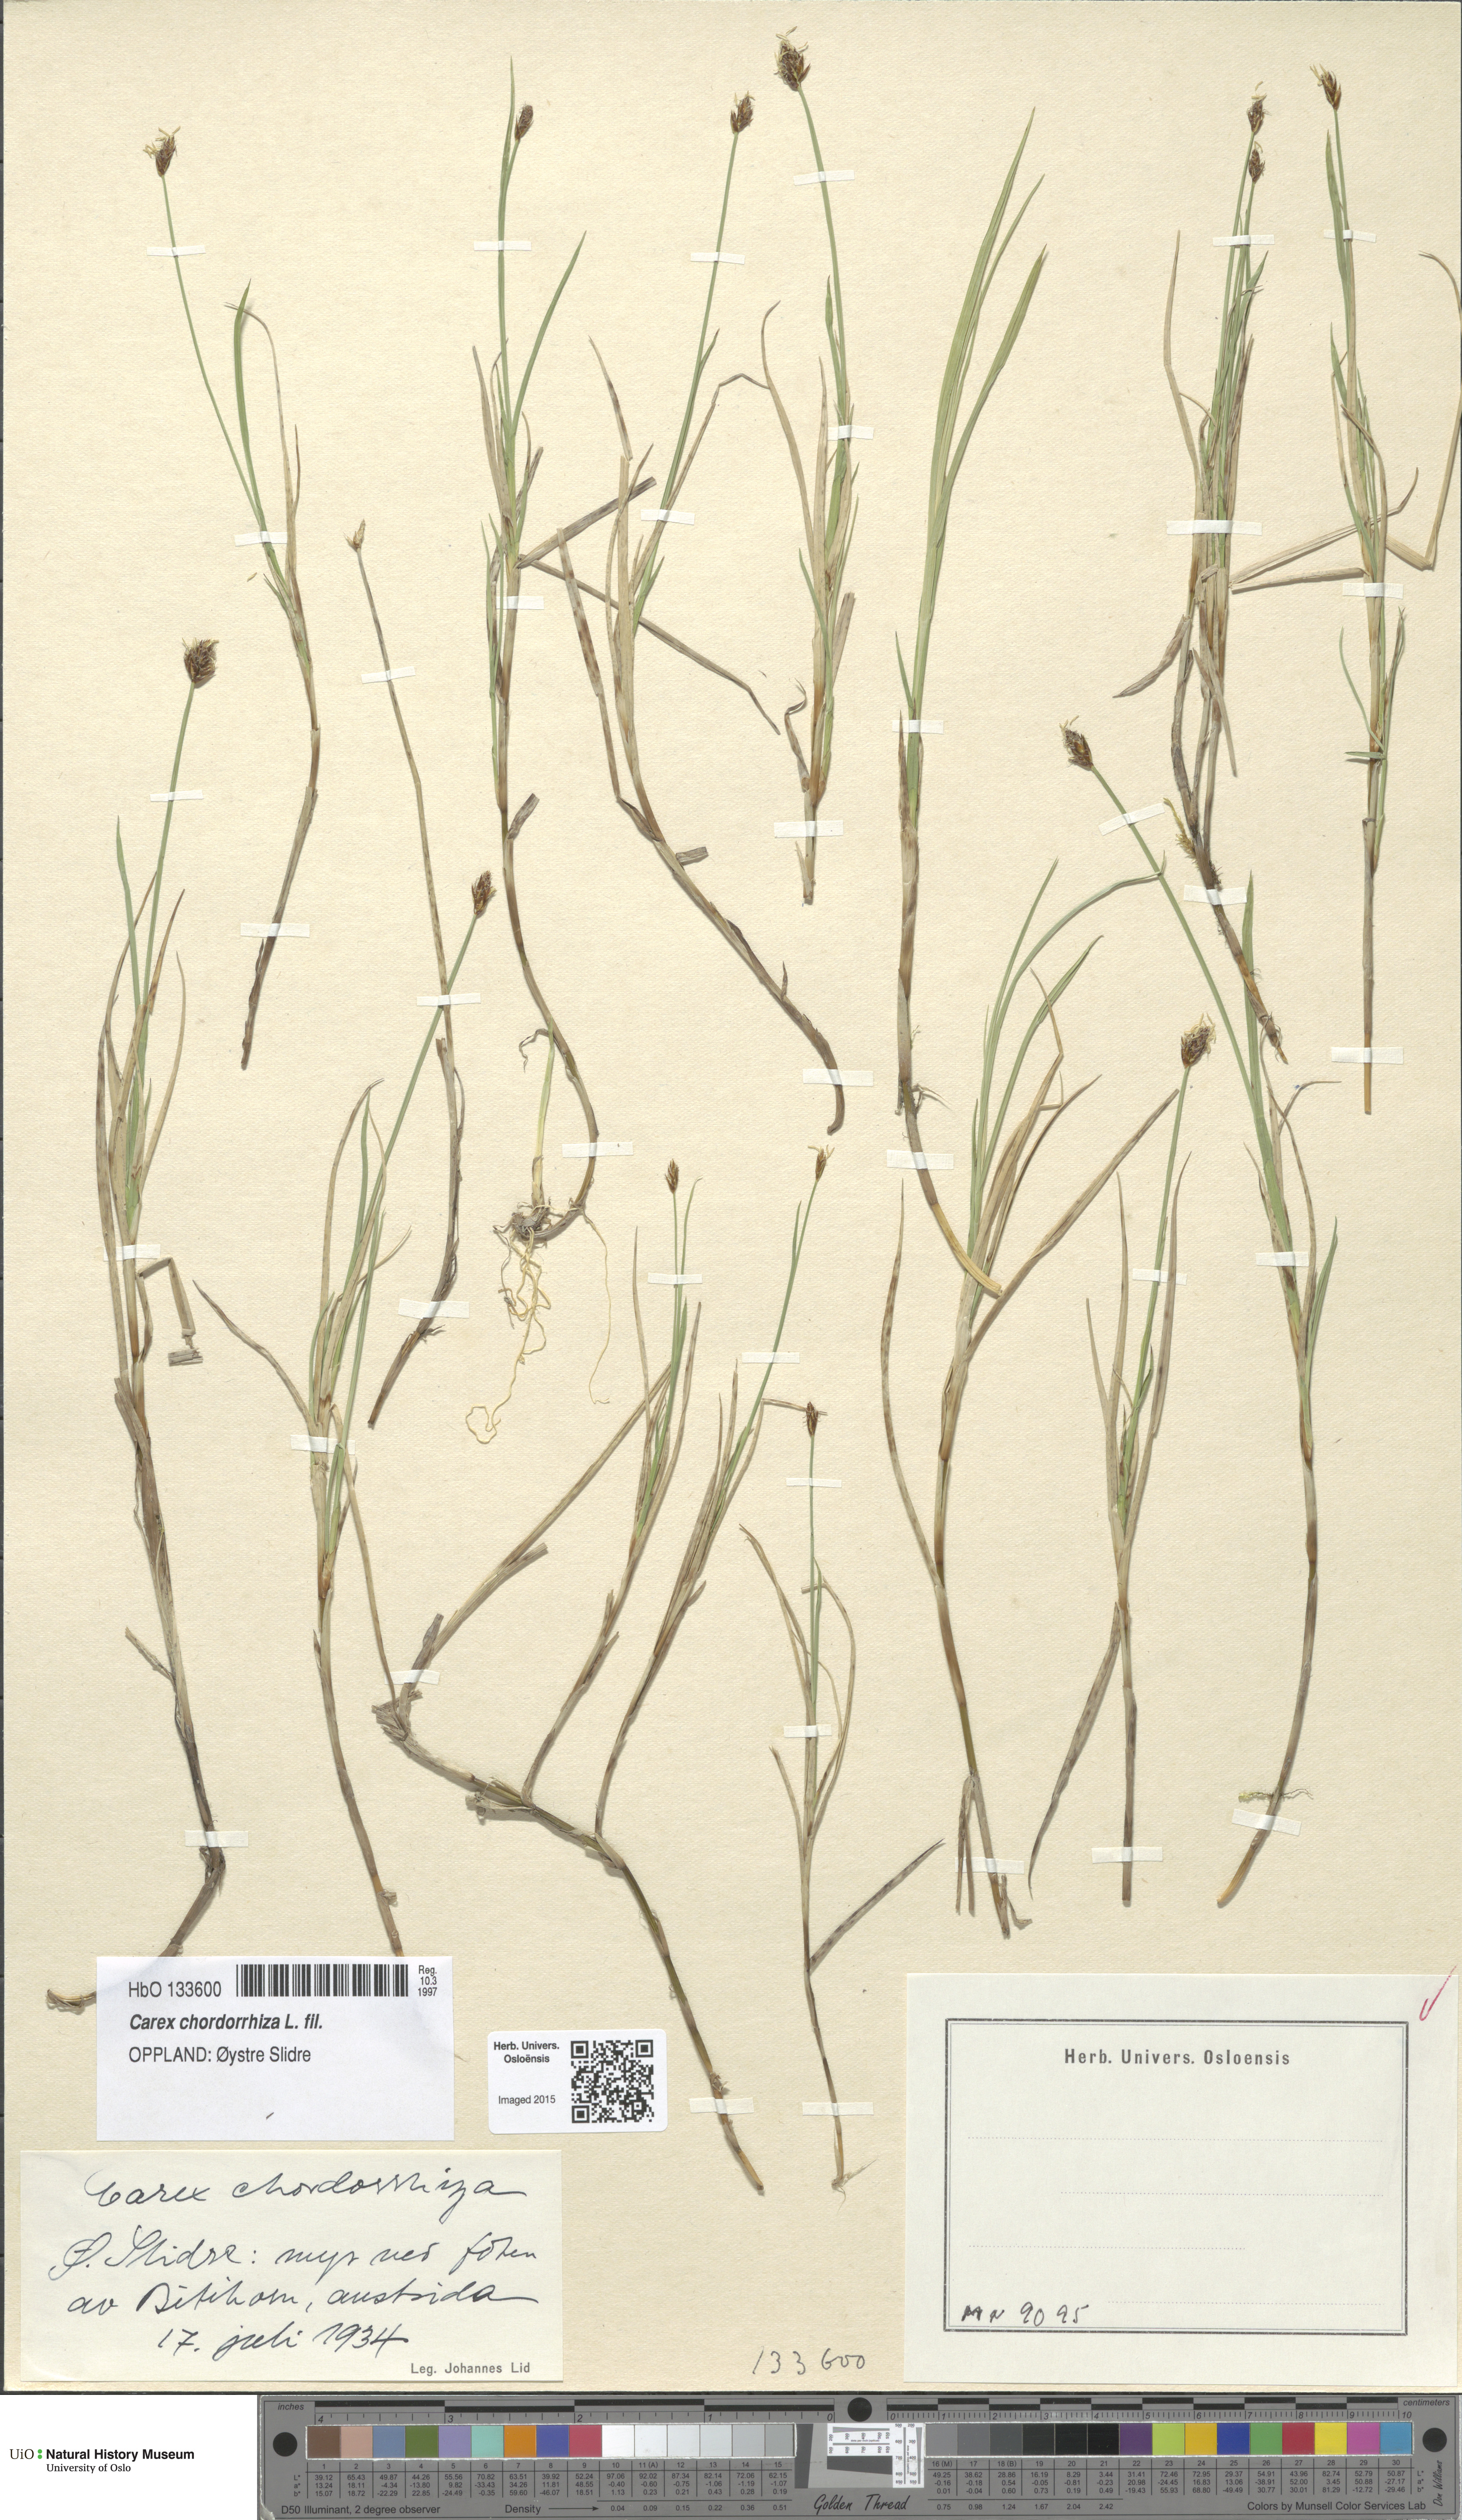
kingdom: Plantae
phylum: Tracheophyta
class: Liliopsida
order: Poales
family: Cyperaceae
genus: Carex
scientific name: Carex chordorrhiza
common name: String sedge
